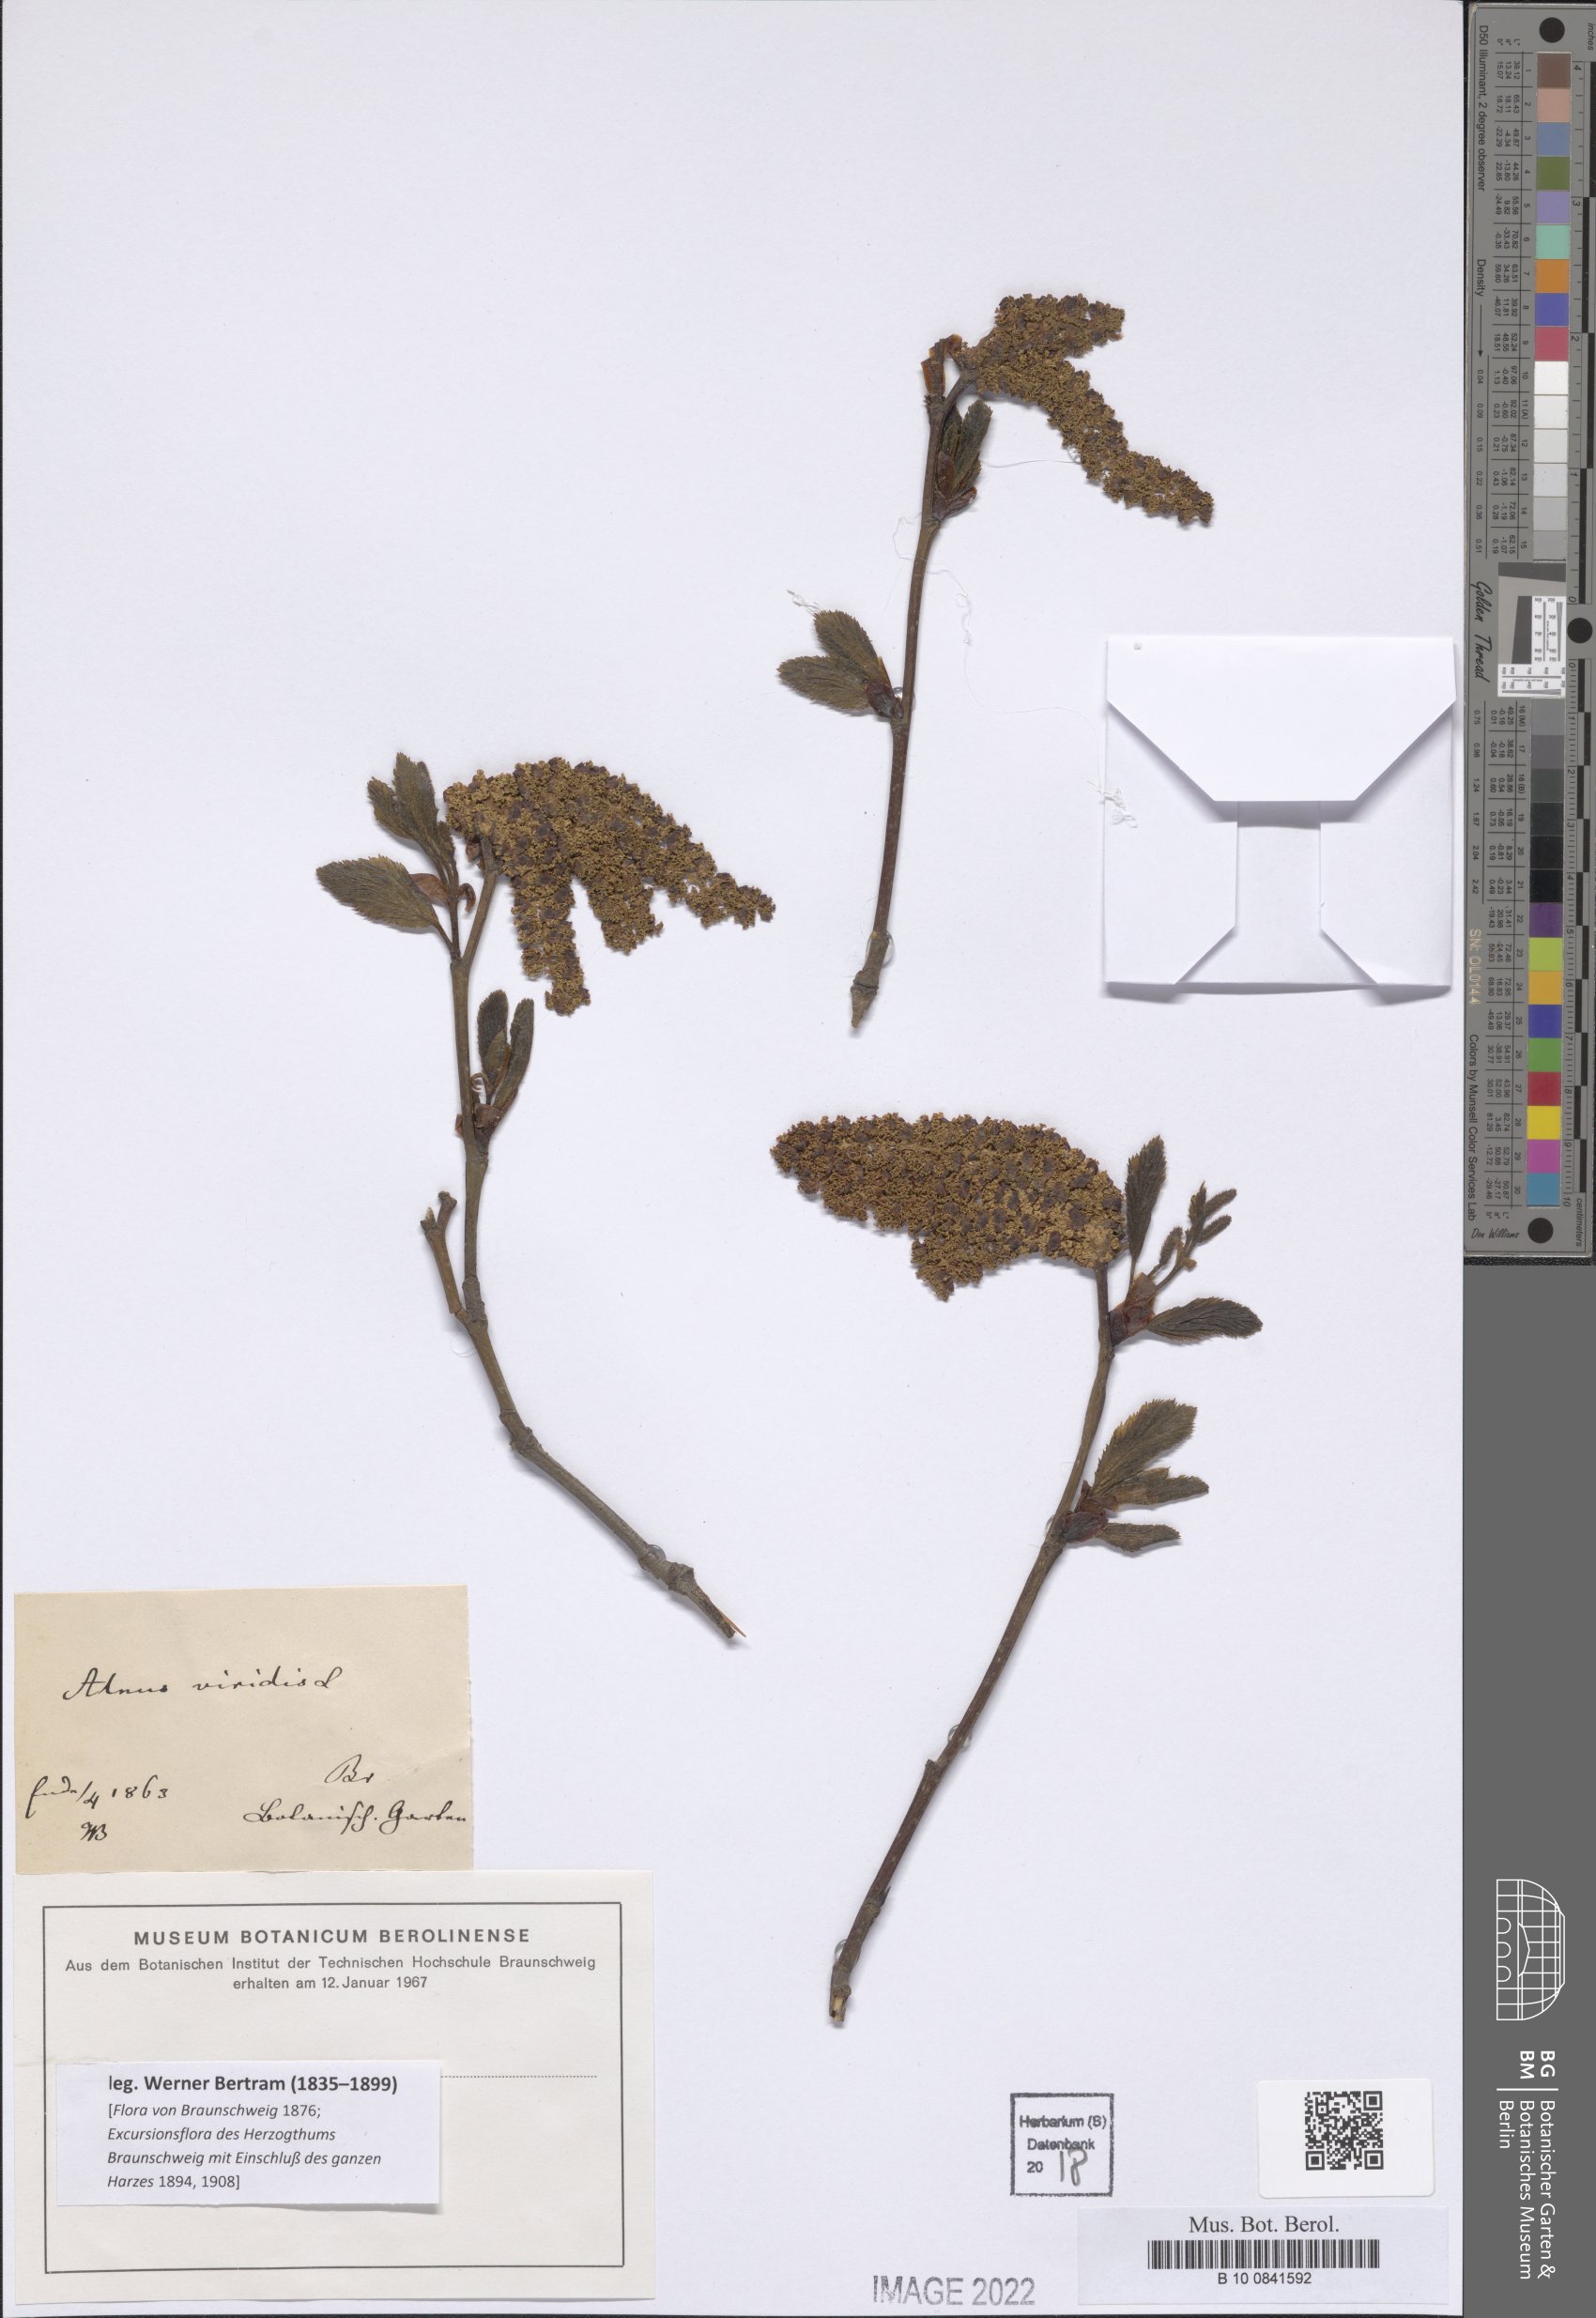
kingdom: Plantae
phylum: Tracheophyta
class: Magnoliopsida
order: Fagales
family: Betulaceae
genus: Alnus
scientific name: Alnus alnobetula
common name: Green alder
